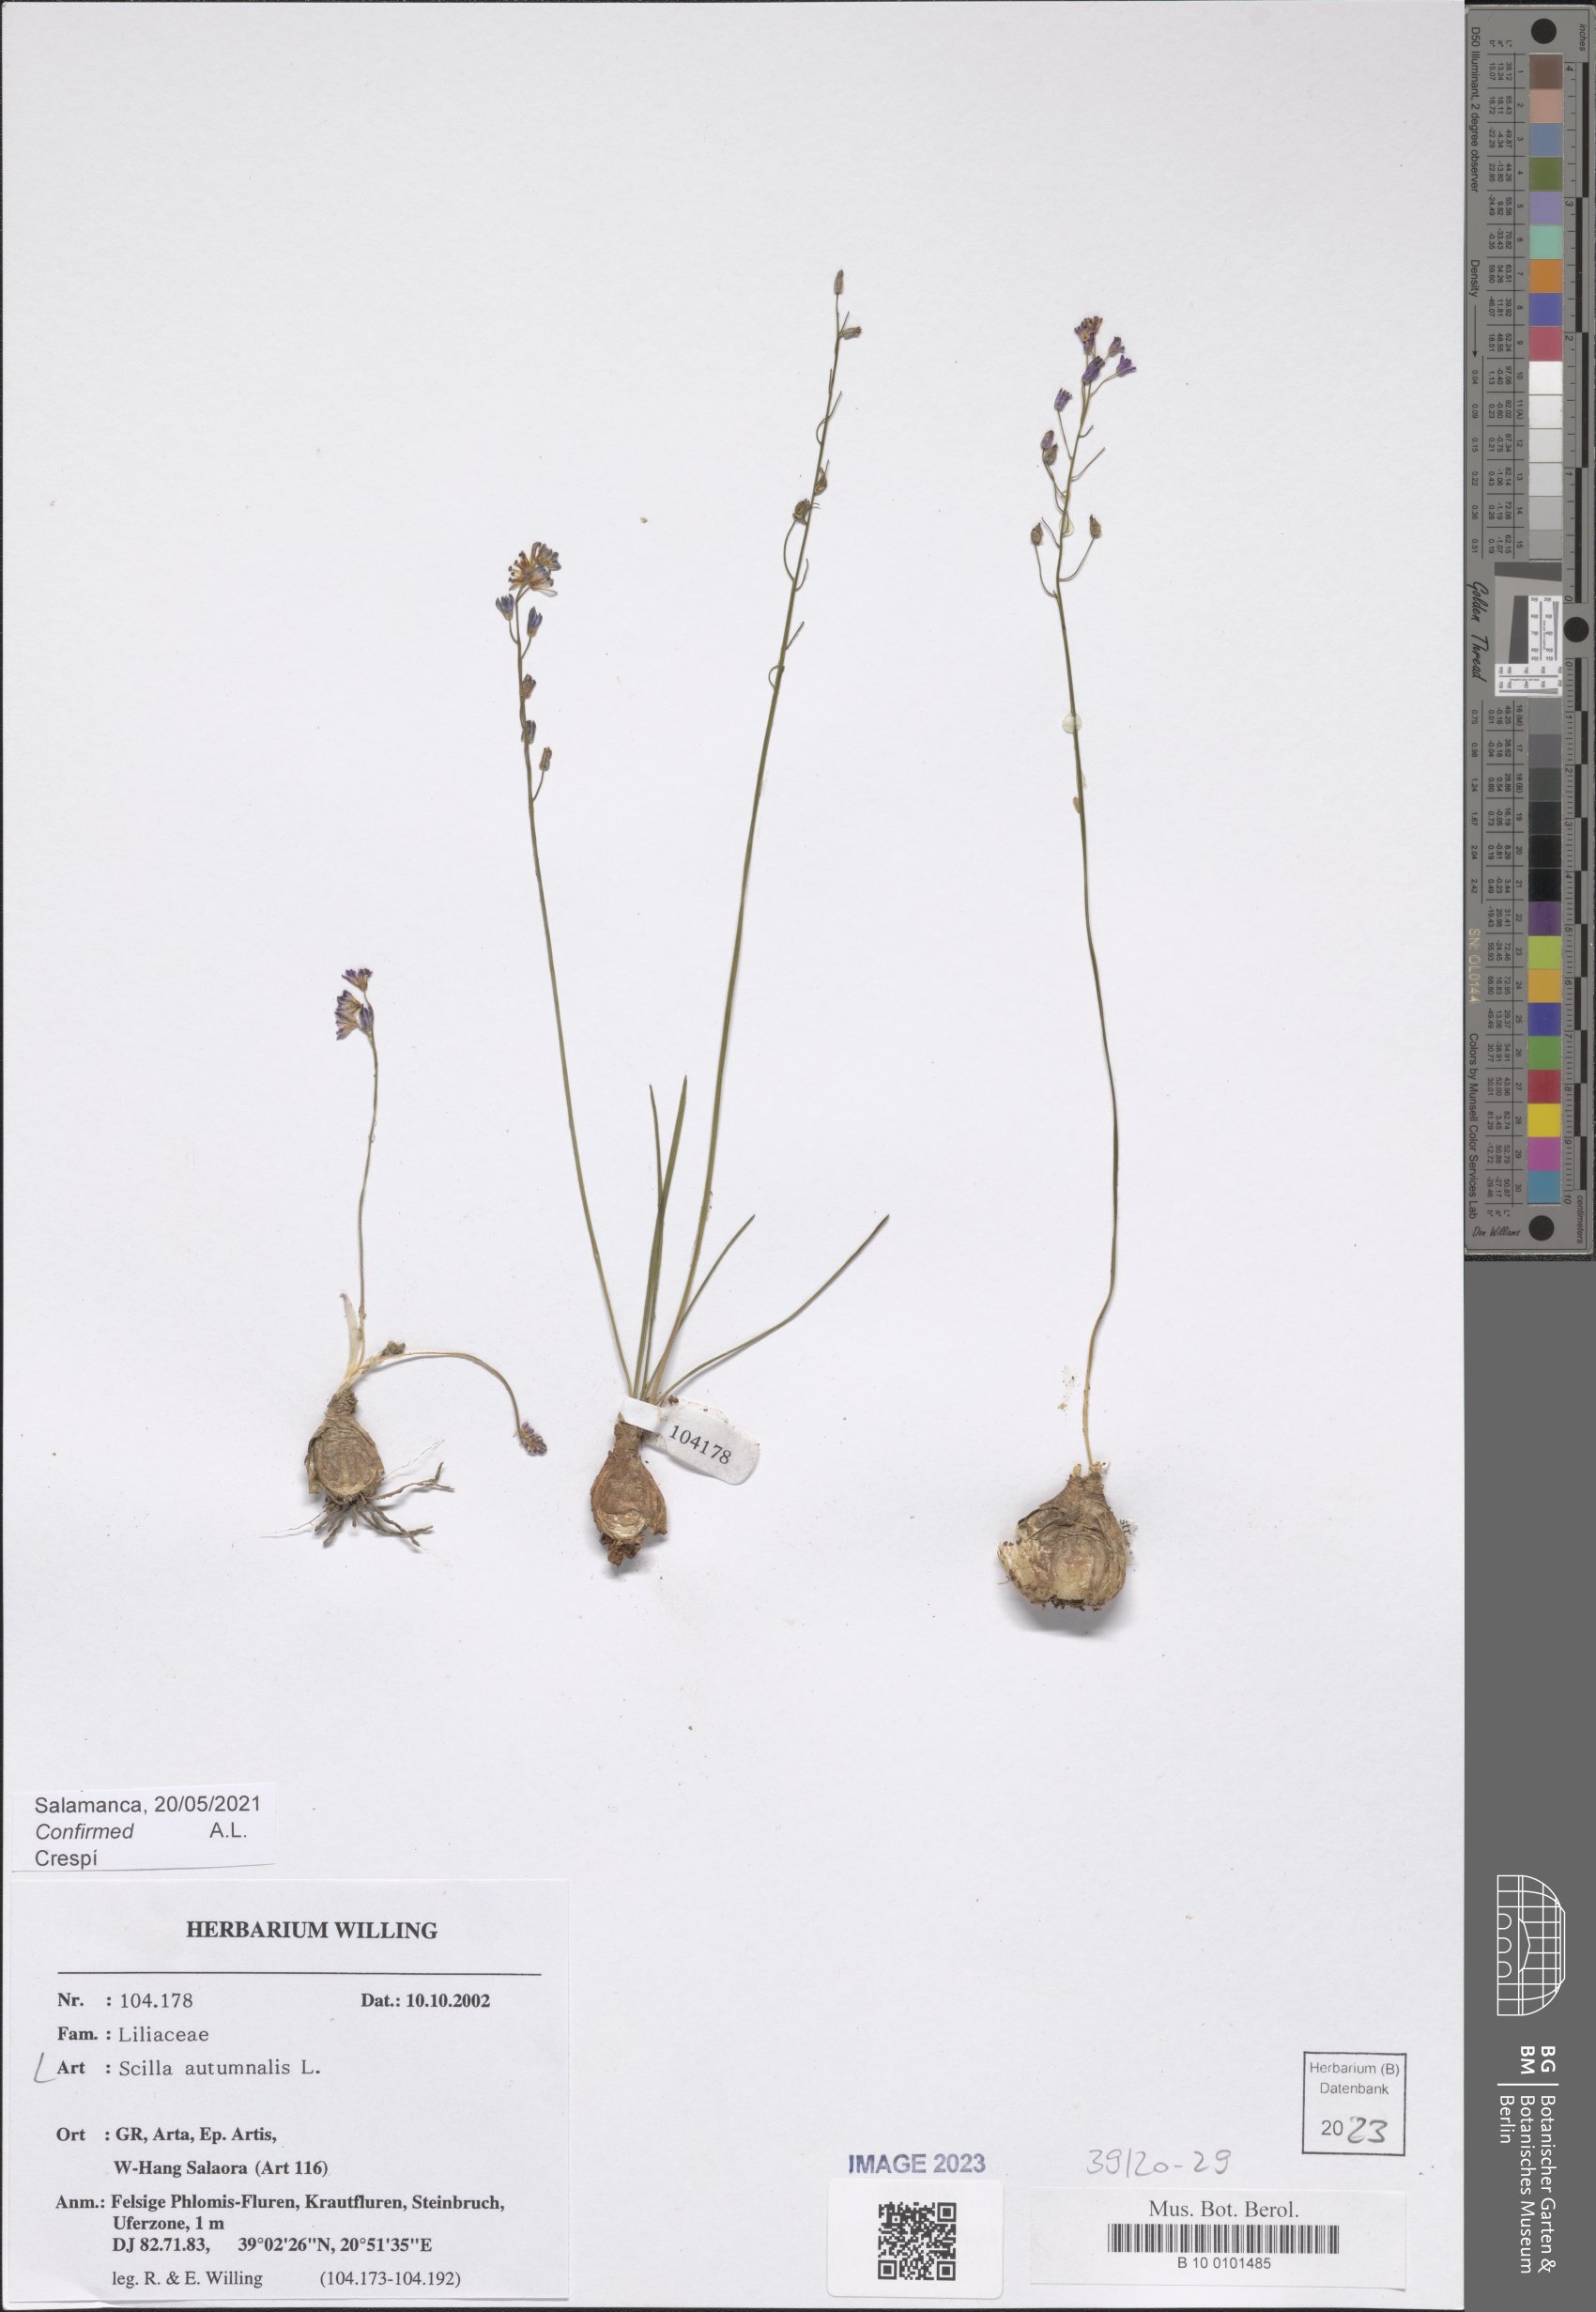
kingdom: Plantae
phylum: Tracheophyta
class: Liliopsida
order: Asparagales
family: Asparagaceae
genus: Prospero
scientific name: Prospero autumnale
